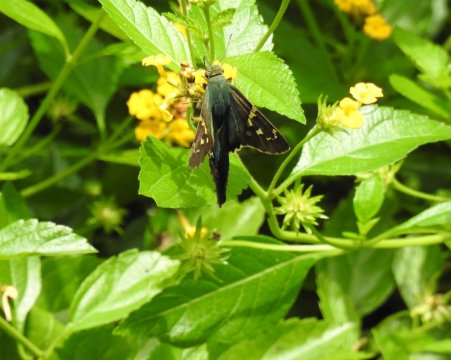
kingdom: Animalia
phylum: Arthropoda
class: Insecta
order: Lepidoptera
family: Hesperiidae
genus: Urbanus
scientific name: Urbanus proteus
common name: Long-tailed Skipper
